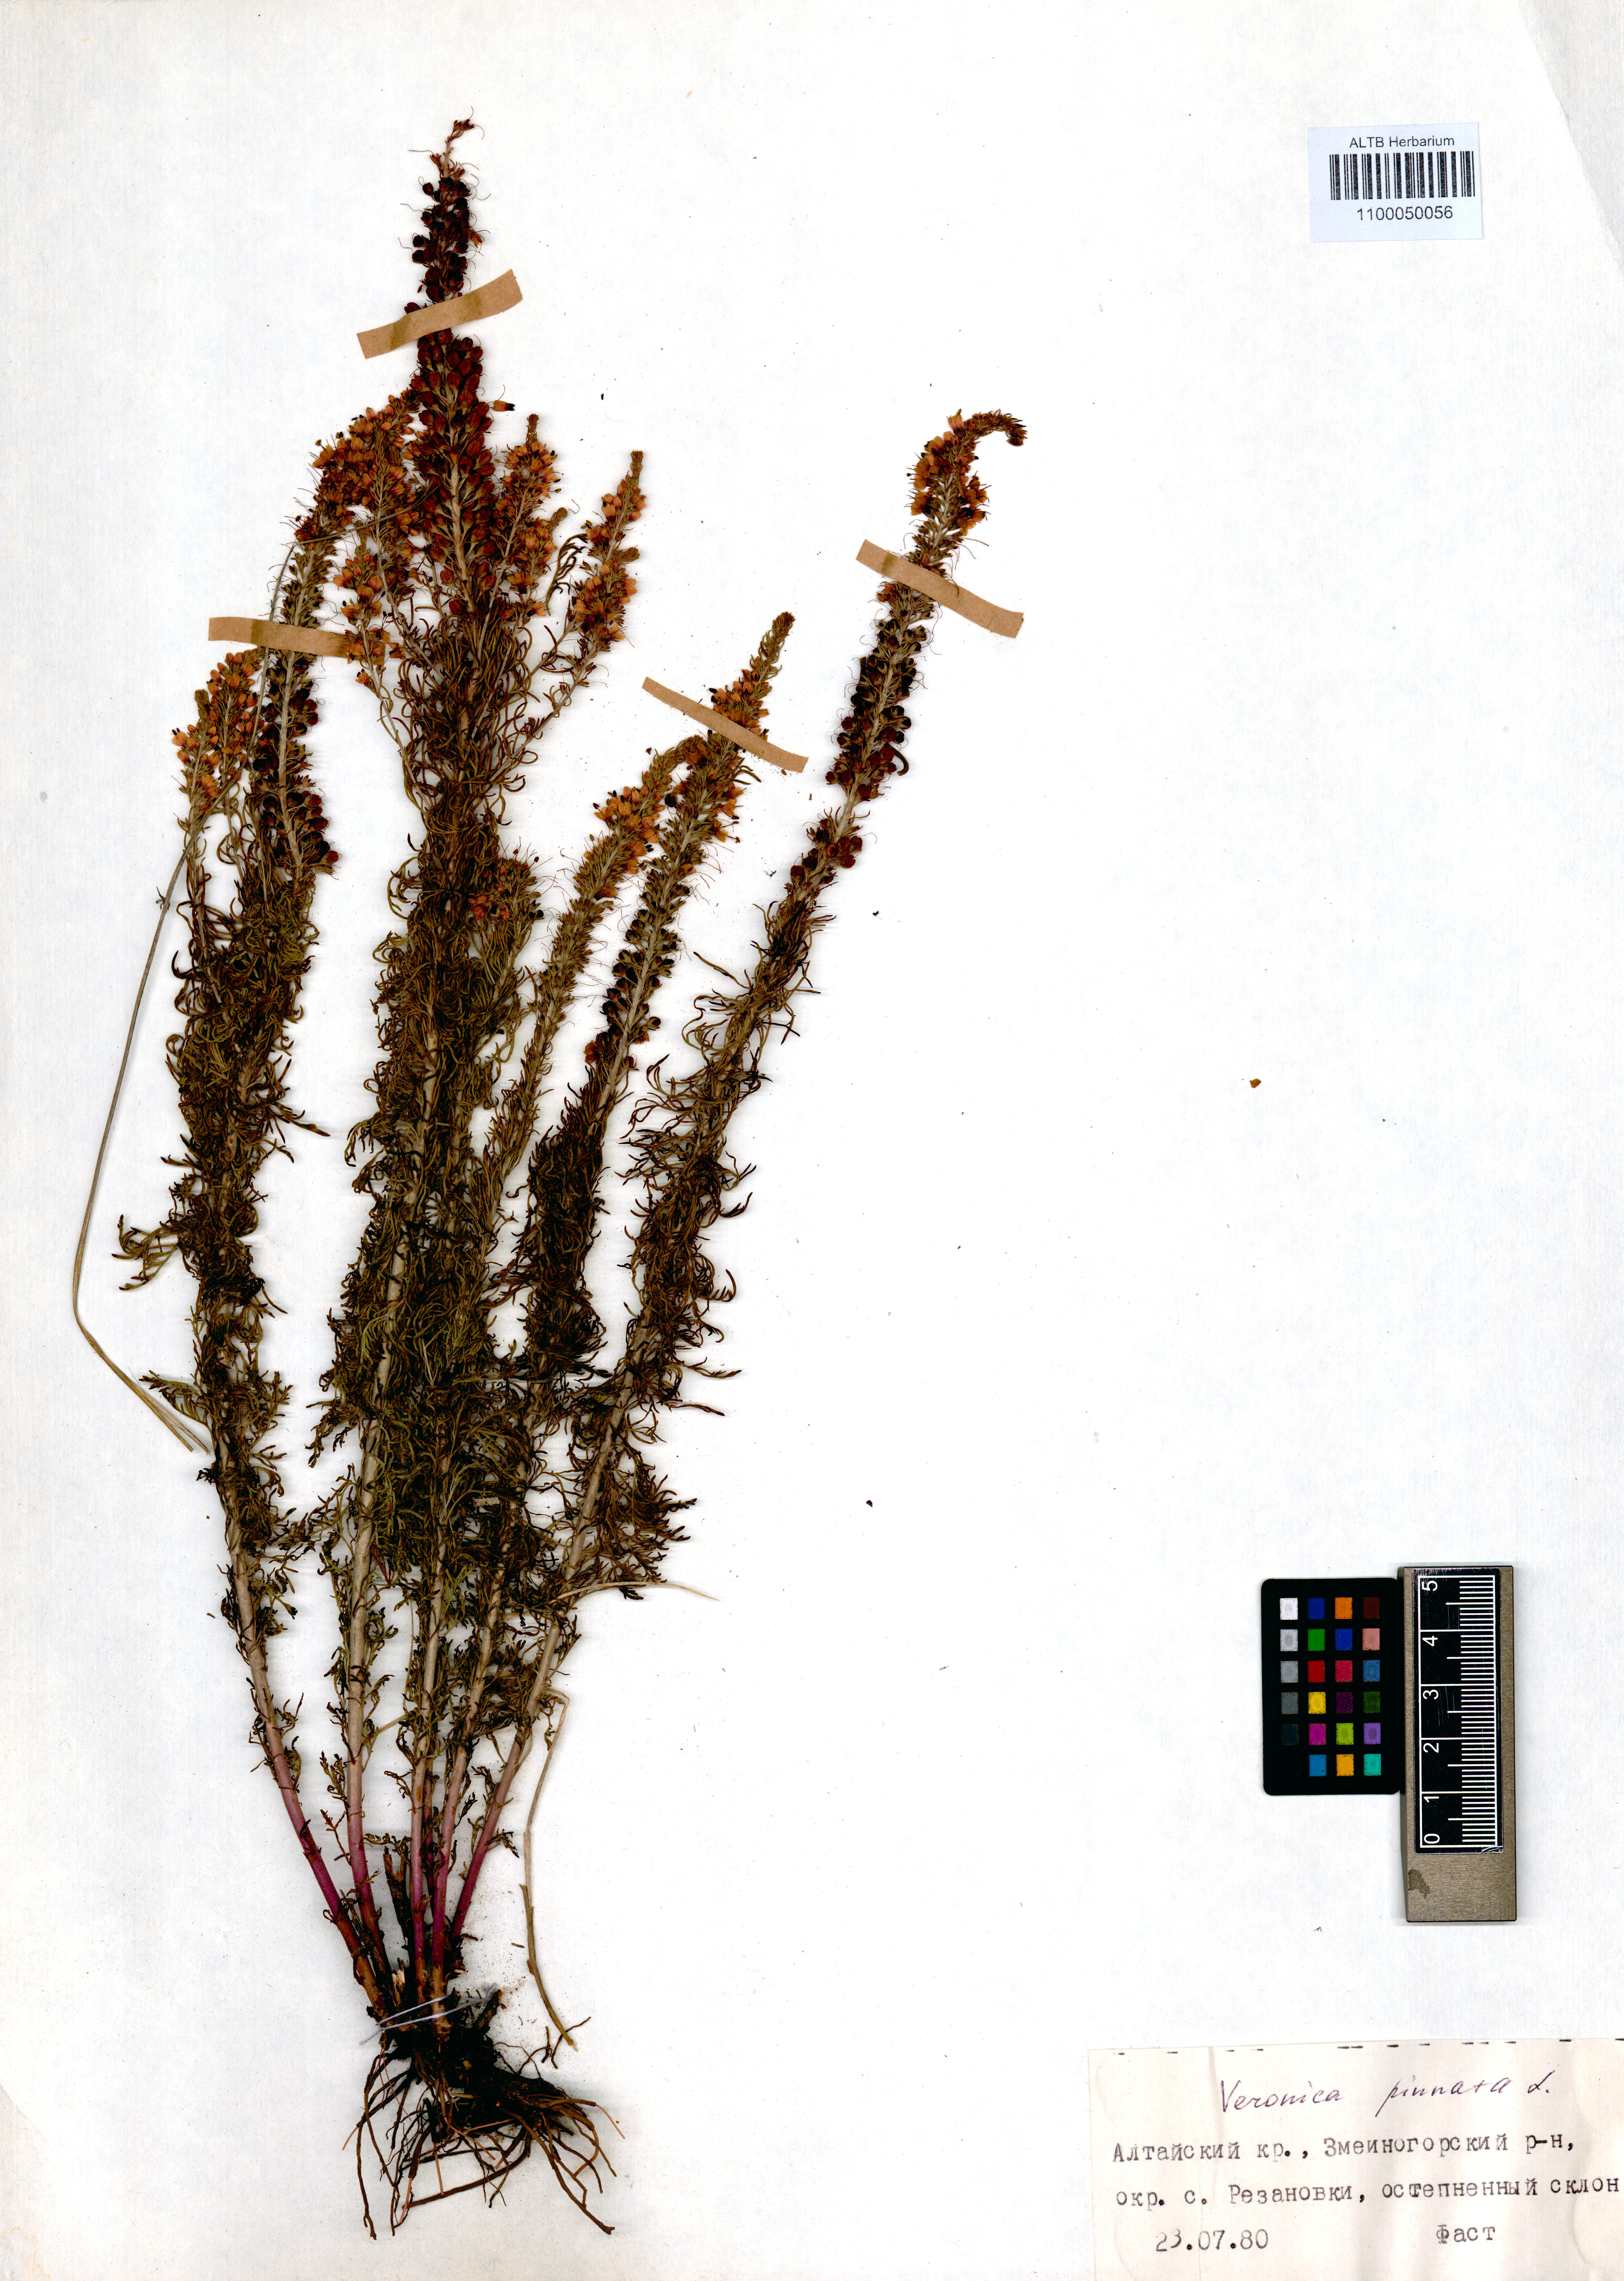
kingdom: Plantae
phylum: Tracheophyta
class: Magnoliopsida
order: Lamiales
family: Plantaginaceae
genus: Veronica
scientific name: Veronica pinnata
